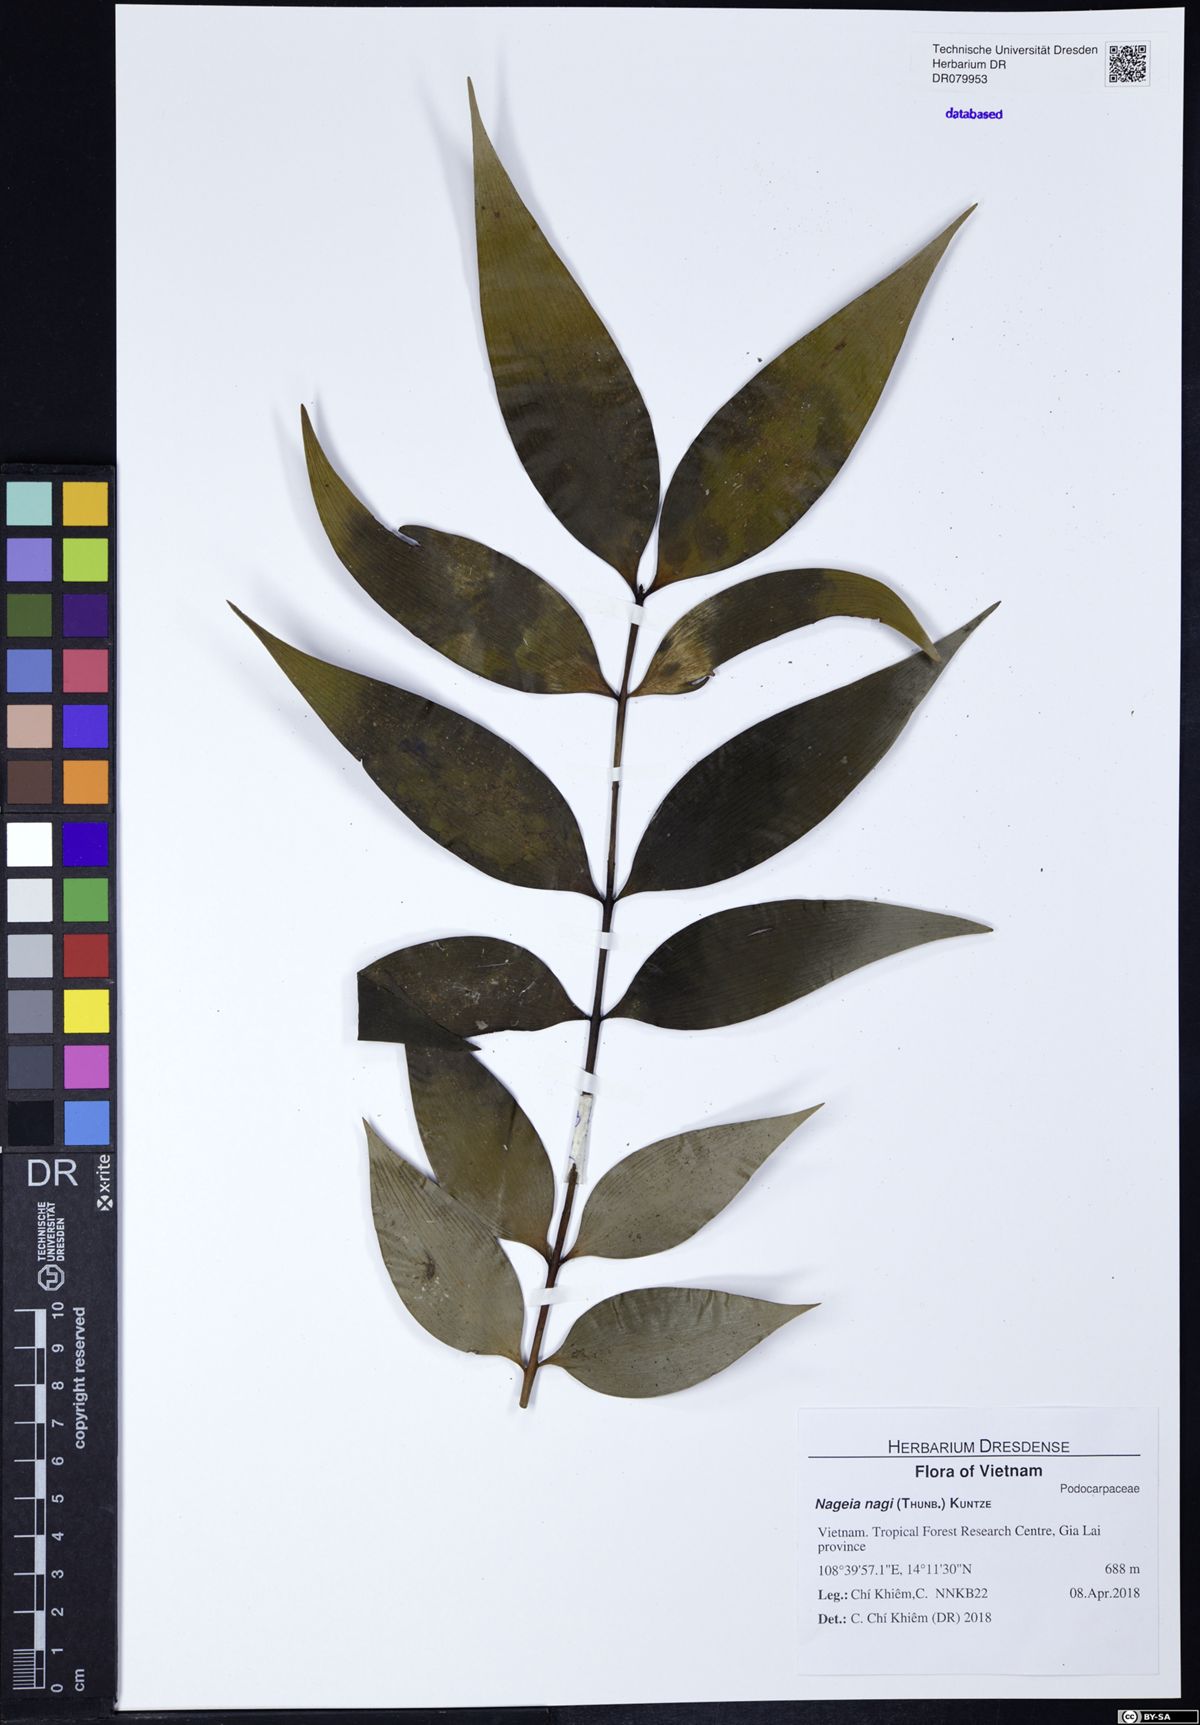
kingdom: Plantae
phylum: Tracheophyta
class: Pinopsida
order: Pinales
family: Podocarpaceae
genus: Nageia
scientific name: Nageia nagi
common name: Kaphal
